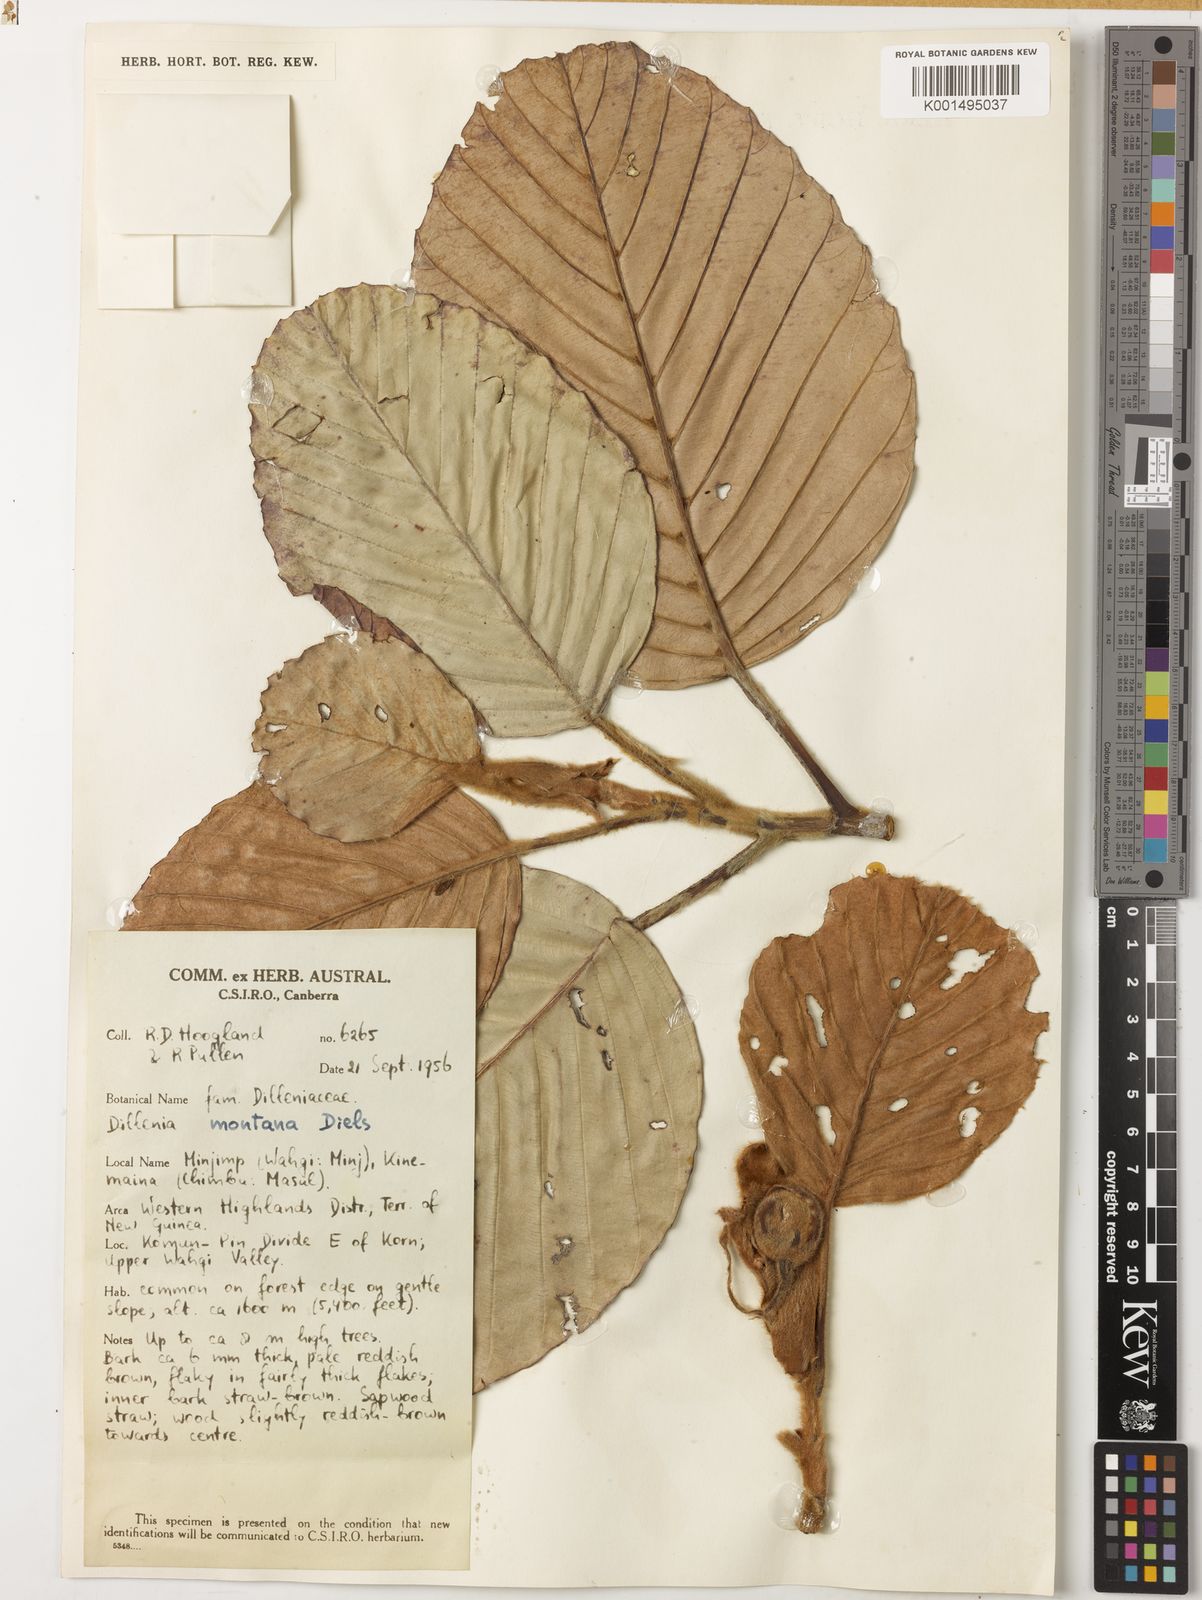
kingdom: Plantae
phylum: Tracheophyta
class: Magnoliopsida
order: Dilleniales
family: Dilleniaceae
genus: Dillenia
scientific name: Dillenia montana
